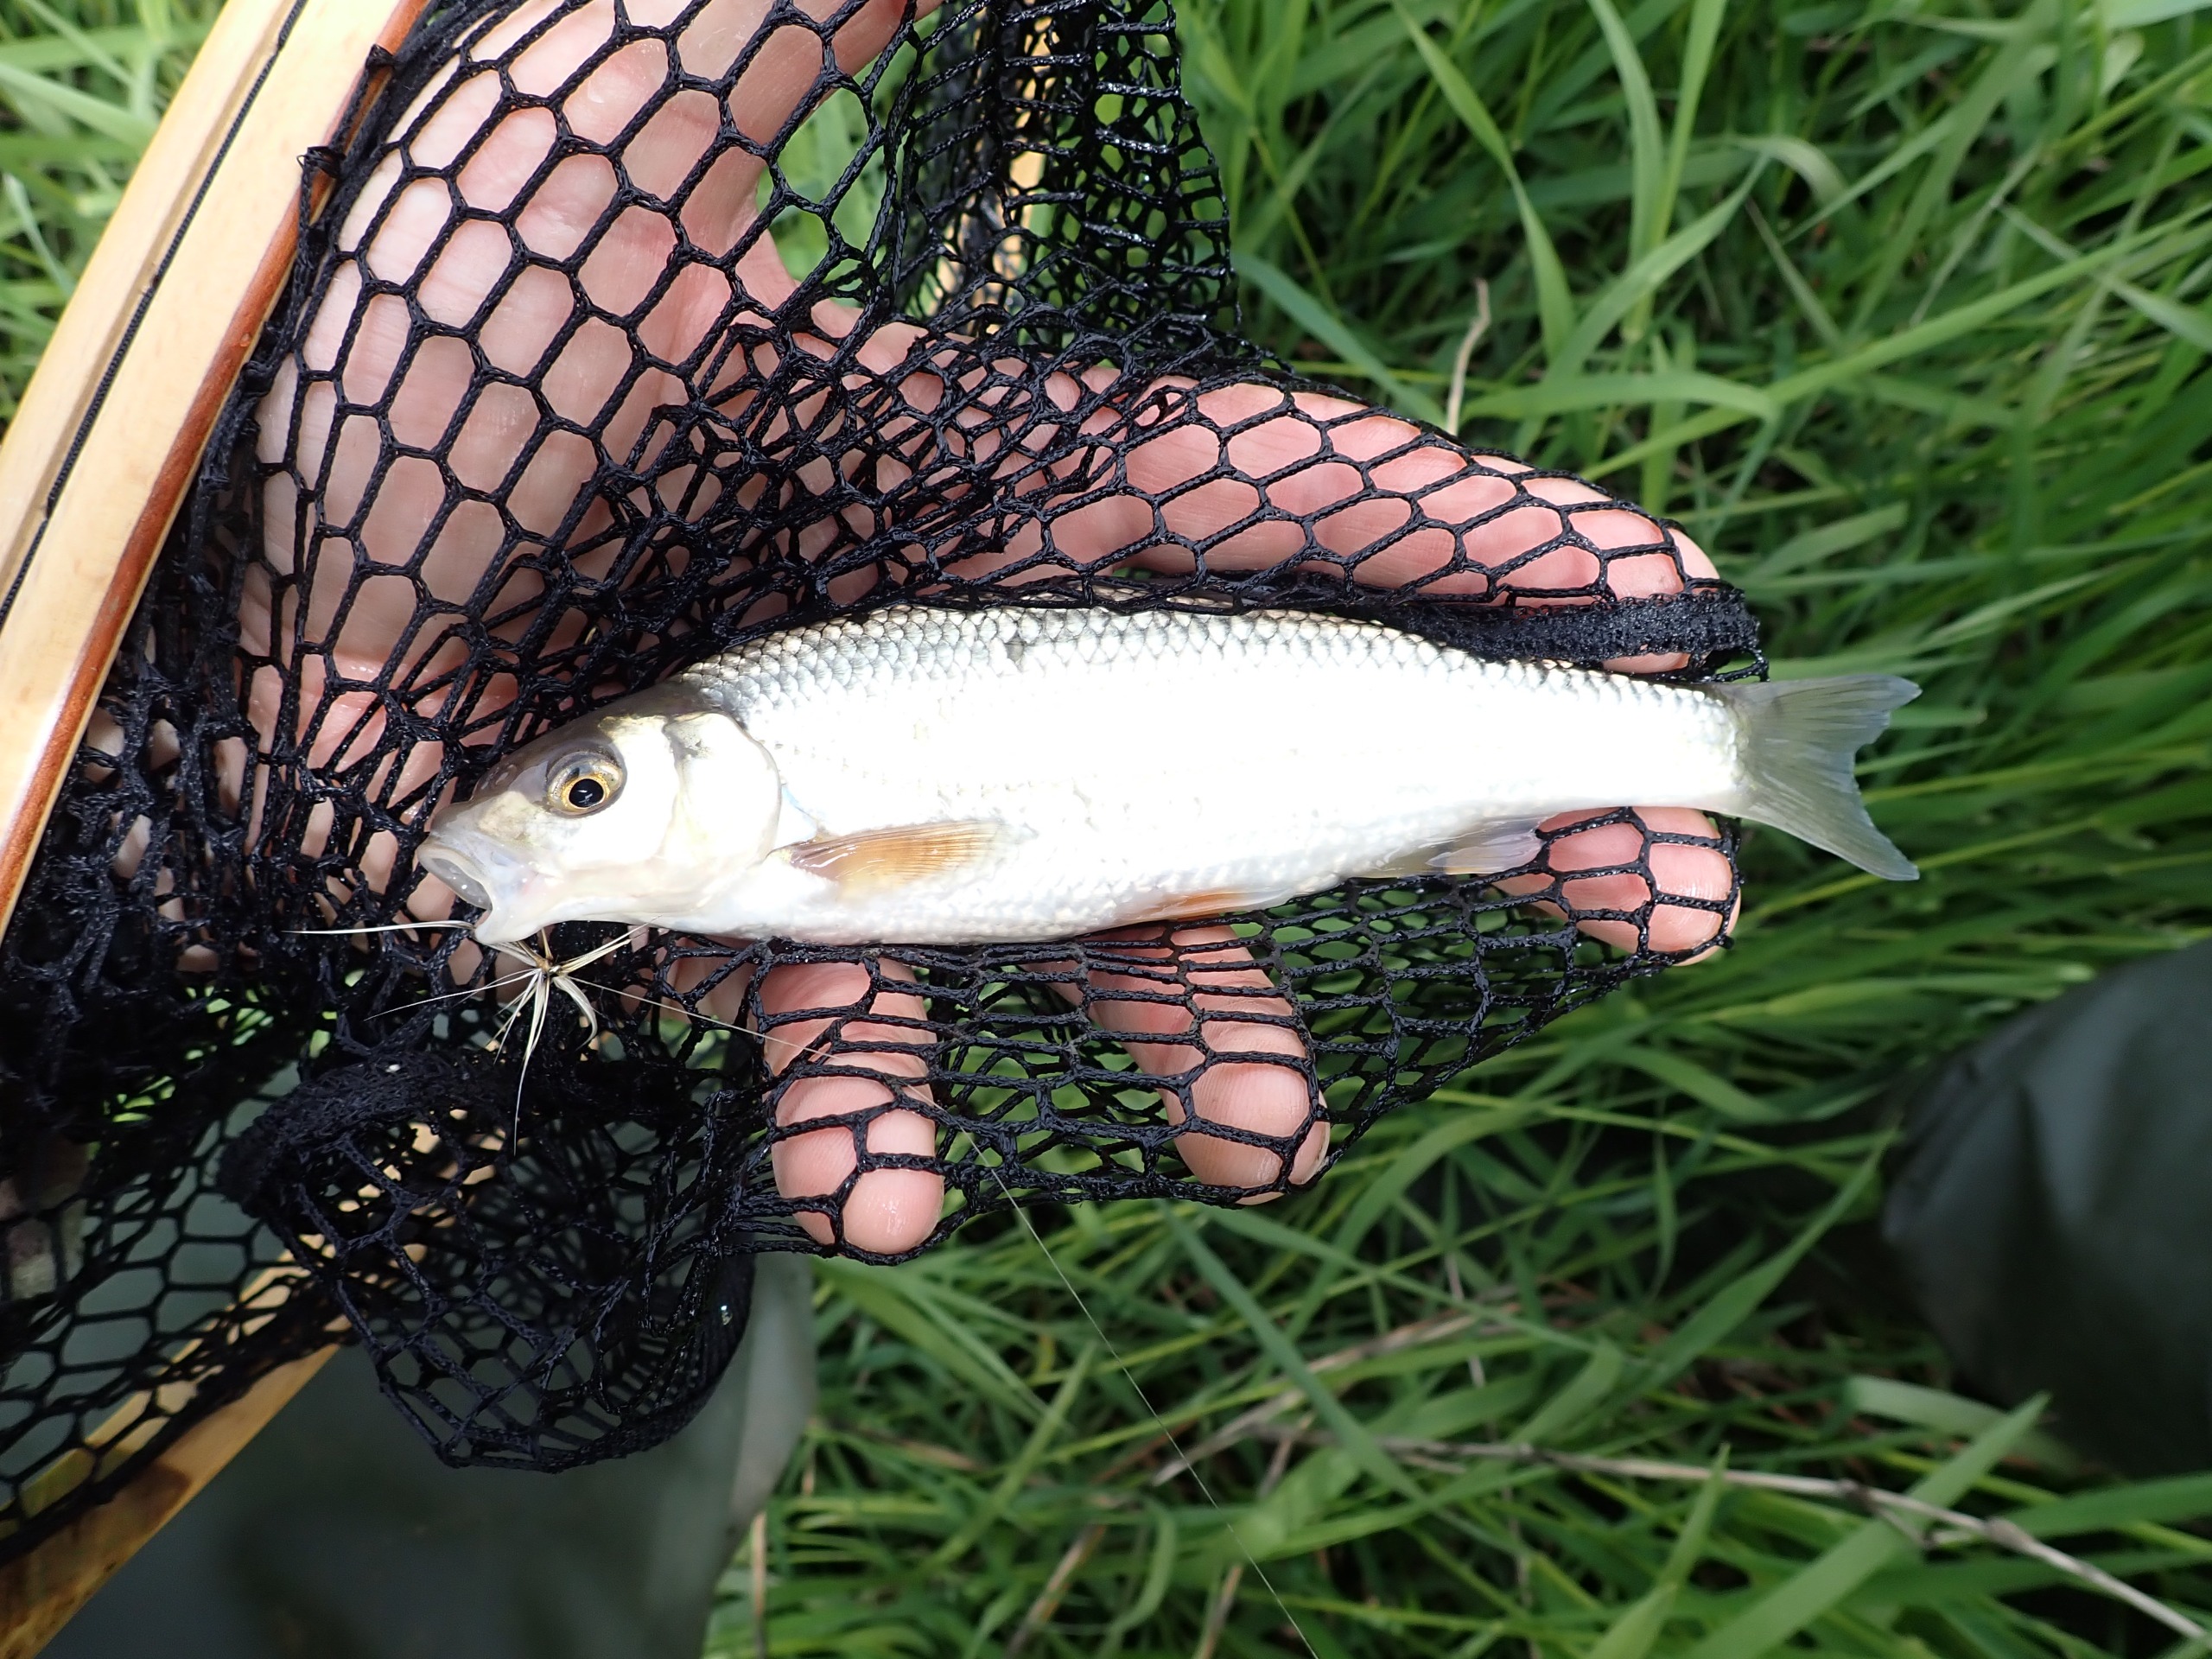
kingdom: Animalia
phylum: Chordata
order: Cypriniformes
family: Cyprinidae
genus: Leuciscus
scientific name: Leuciscus leuciscus
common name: Strømskalle
